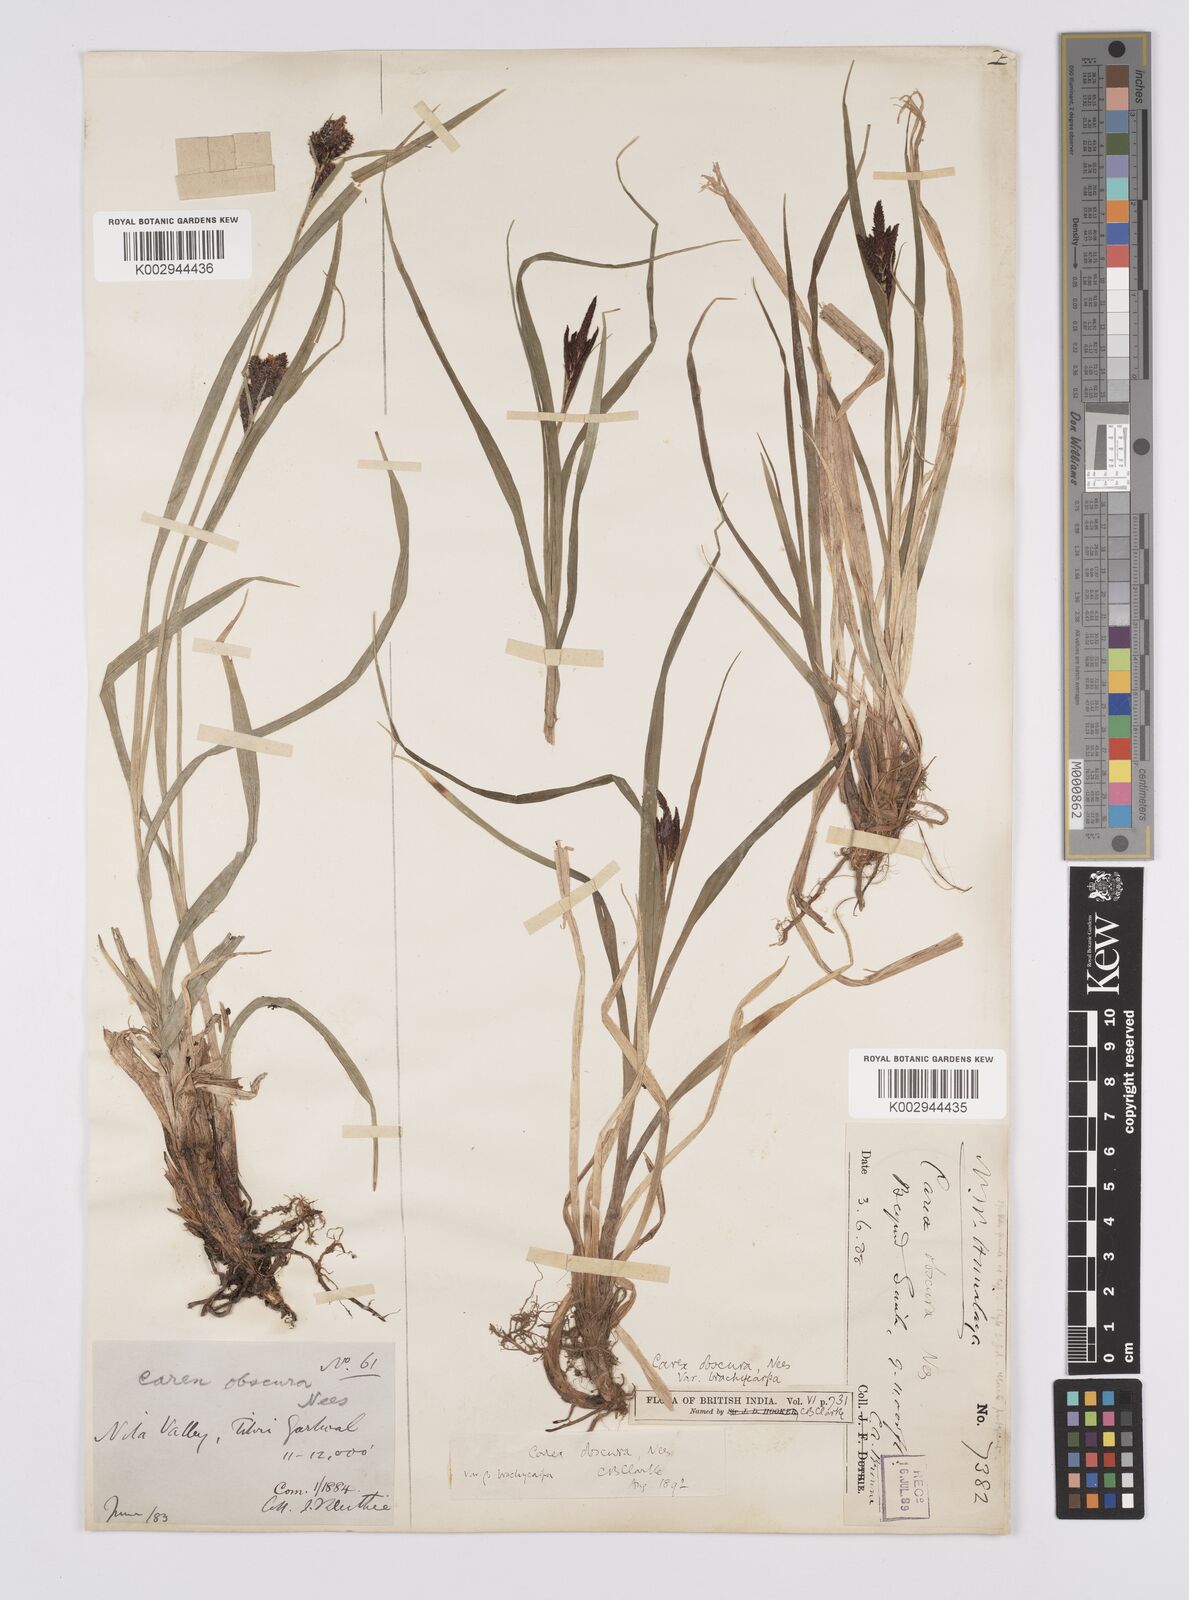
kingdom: Plantae
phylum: Tracheophyta
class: Liliopsida
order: Poales
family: Cyperaceae
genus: Carex
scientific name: Carex obscura
